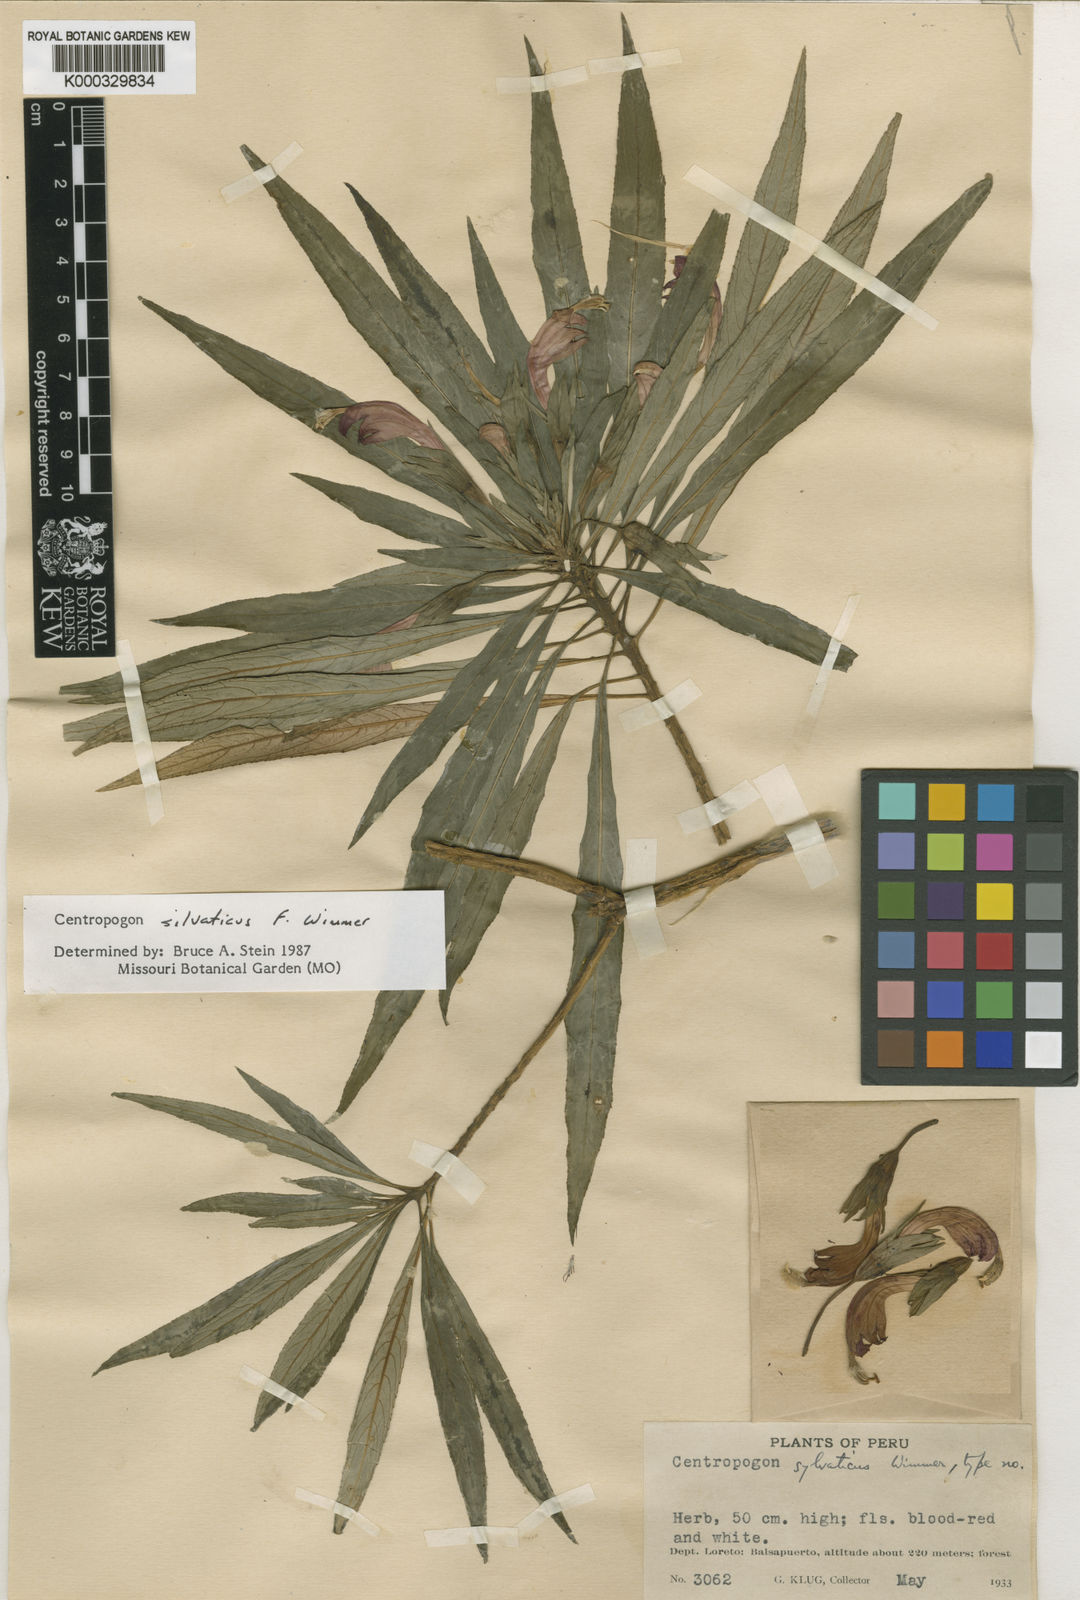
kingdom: Plantae
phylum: Tracheophyta
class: Magnoliopsida
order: Asterales
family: Campanulaceae
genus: Centropogon
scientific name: Centropogon silvaticus
